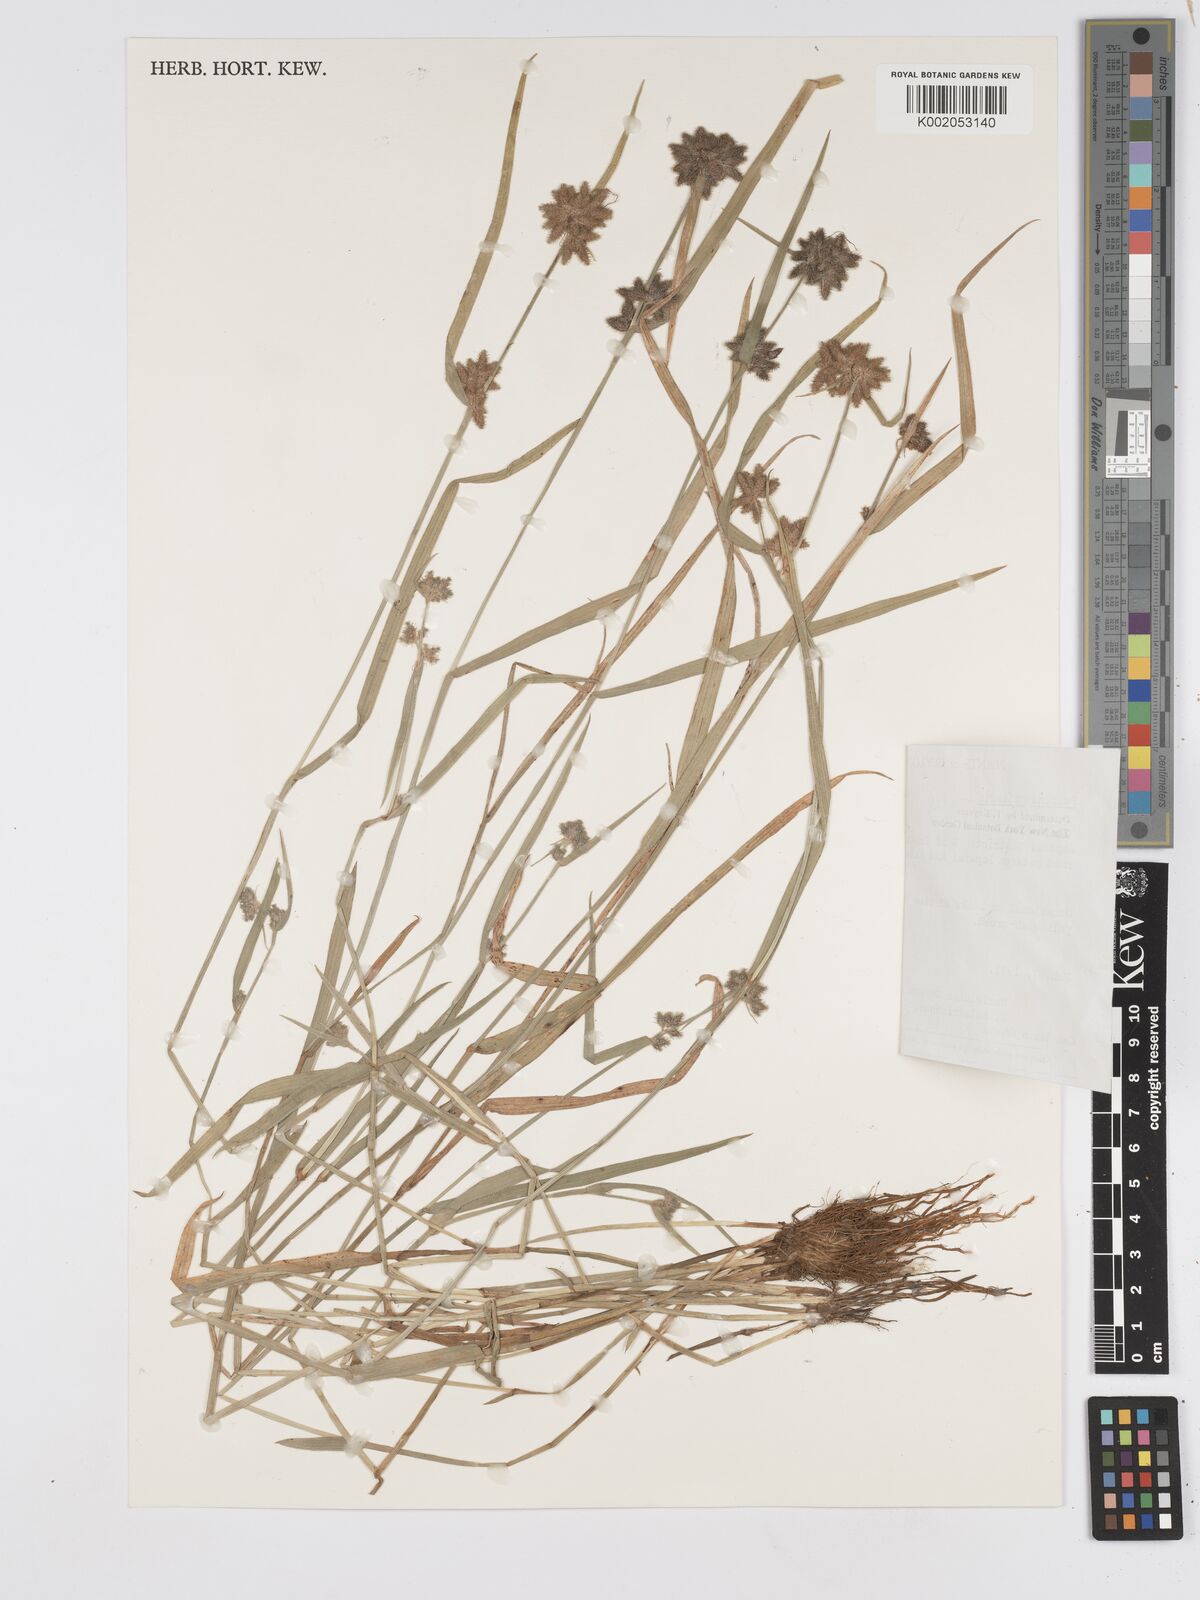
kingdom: Plantae
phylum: Tracheophyta
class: Liliopsida
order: Poales
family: Cyperaceae
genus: Fuirena
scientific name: Fuirena ciliaris
